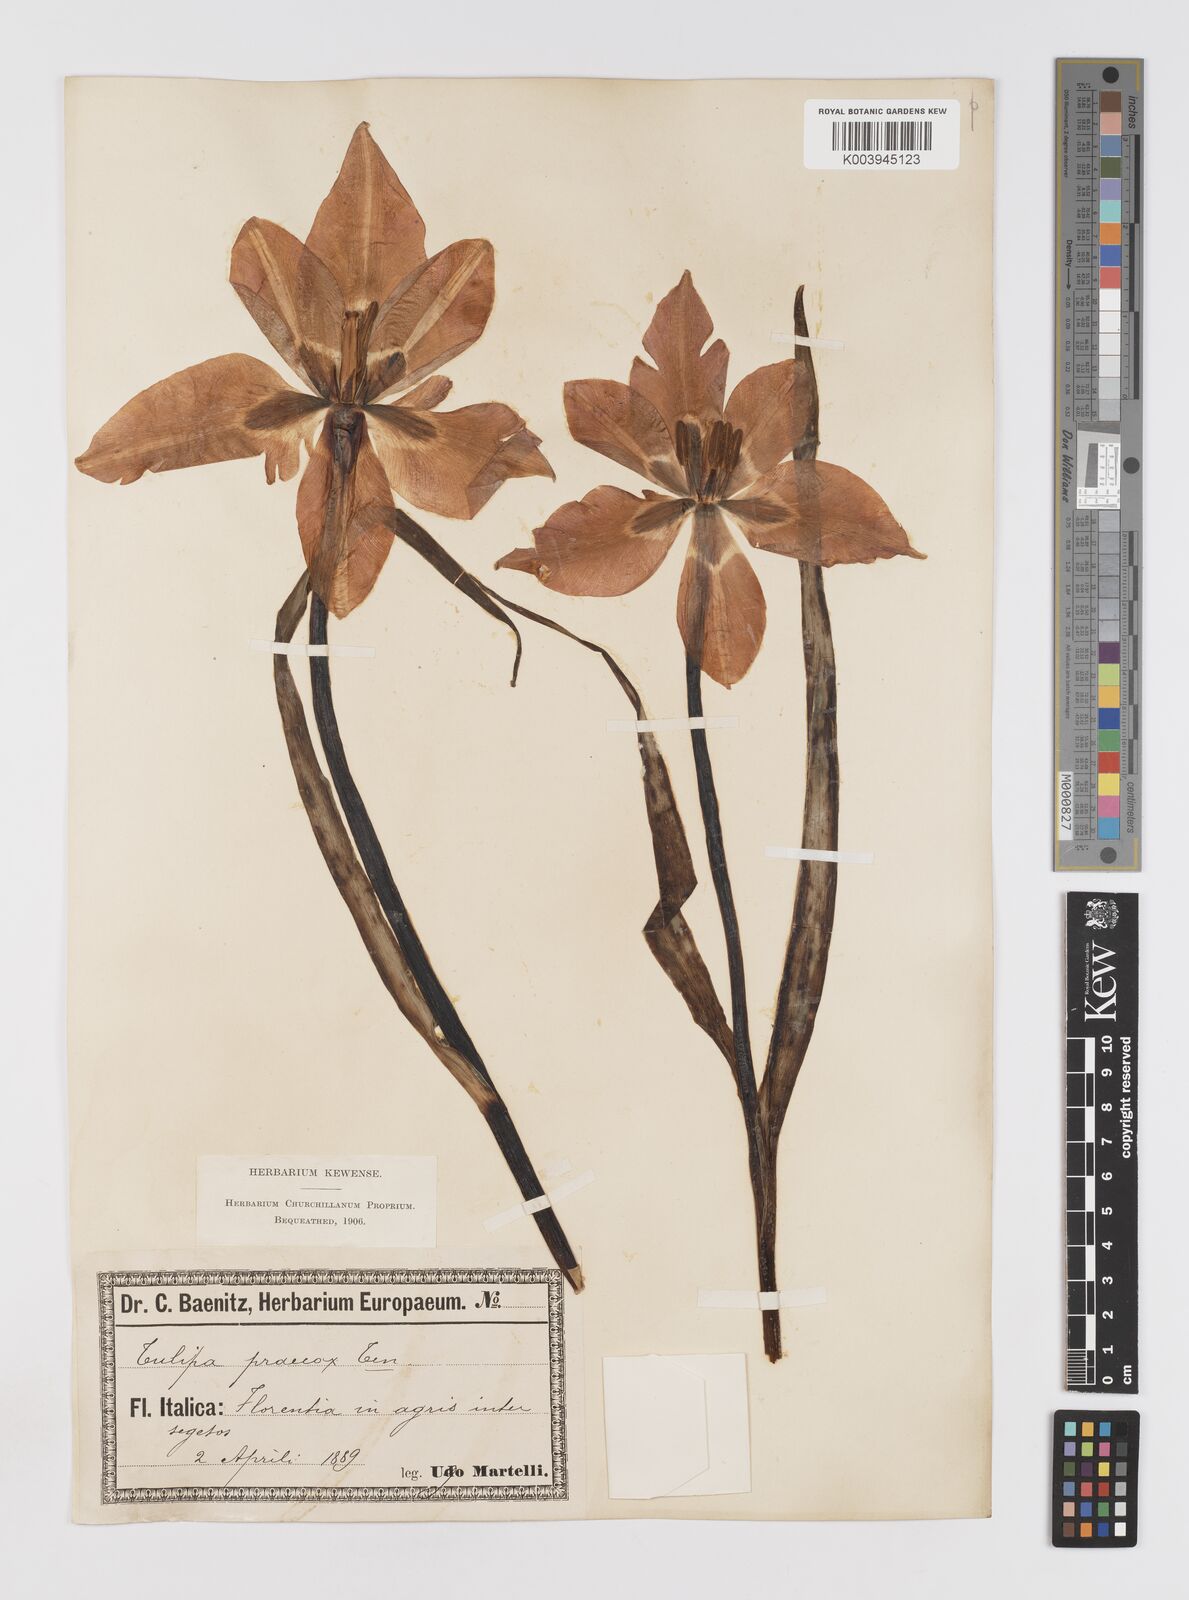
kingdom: Plantae
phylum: Tracheophyta
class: Liliopsida
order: Liliales
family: Liliaceae
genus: Tulipa
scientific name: Tulipa
